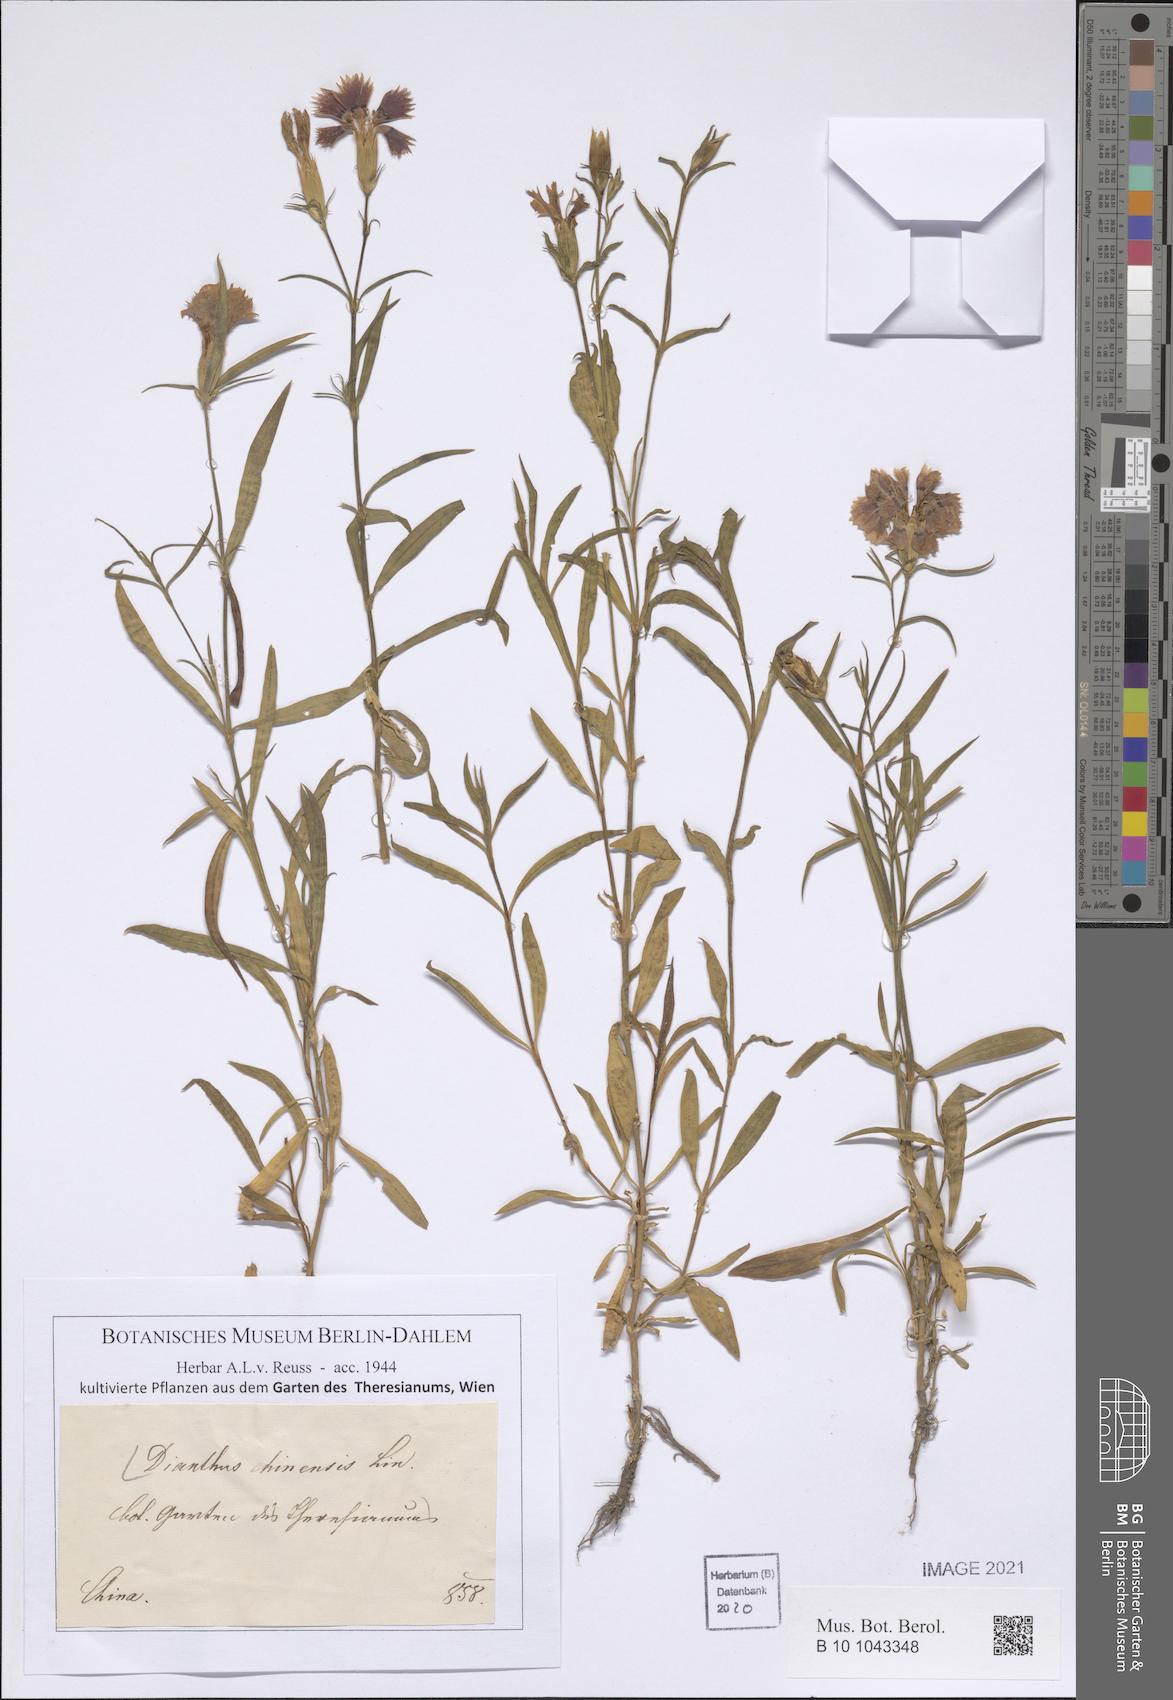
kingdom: Plantae
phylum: Tracheophyta
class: Magnoliopsida
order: Caryophyllales
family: Caryophyllaceae
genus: Dianthus
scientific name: Dianthus chinensis
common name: Rainbow pink
